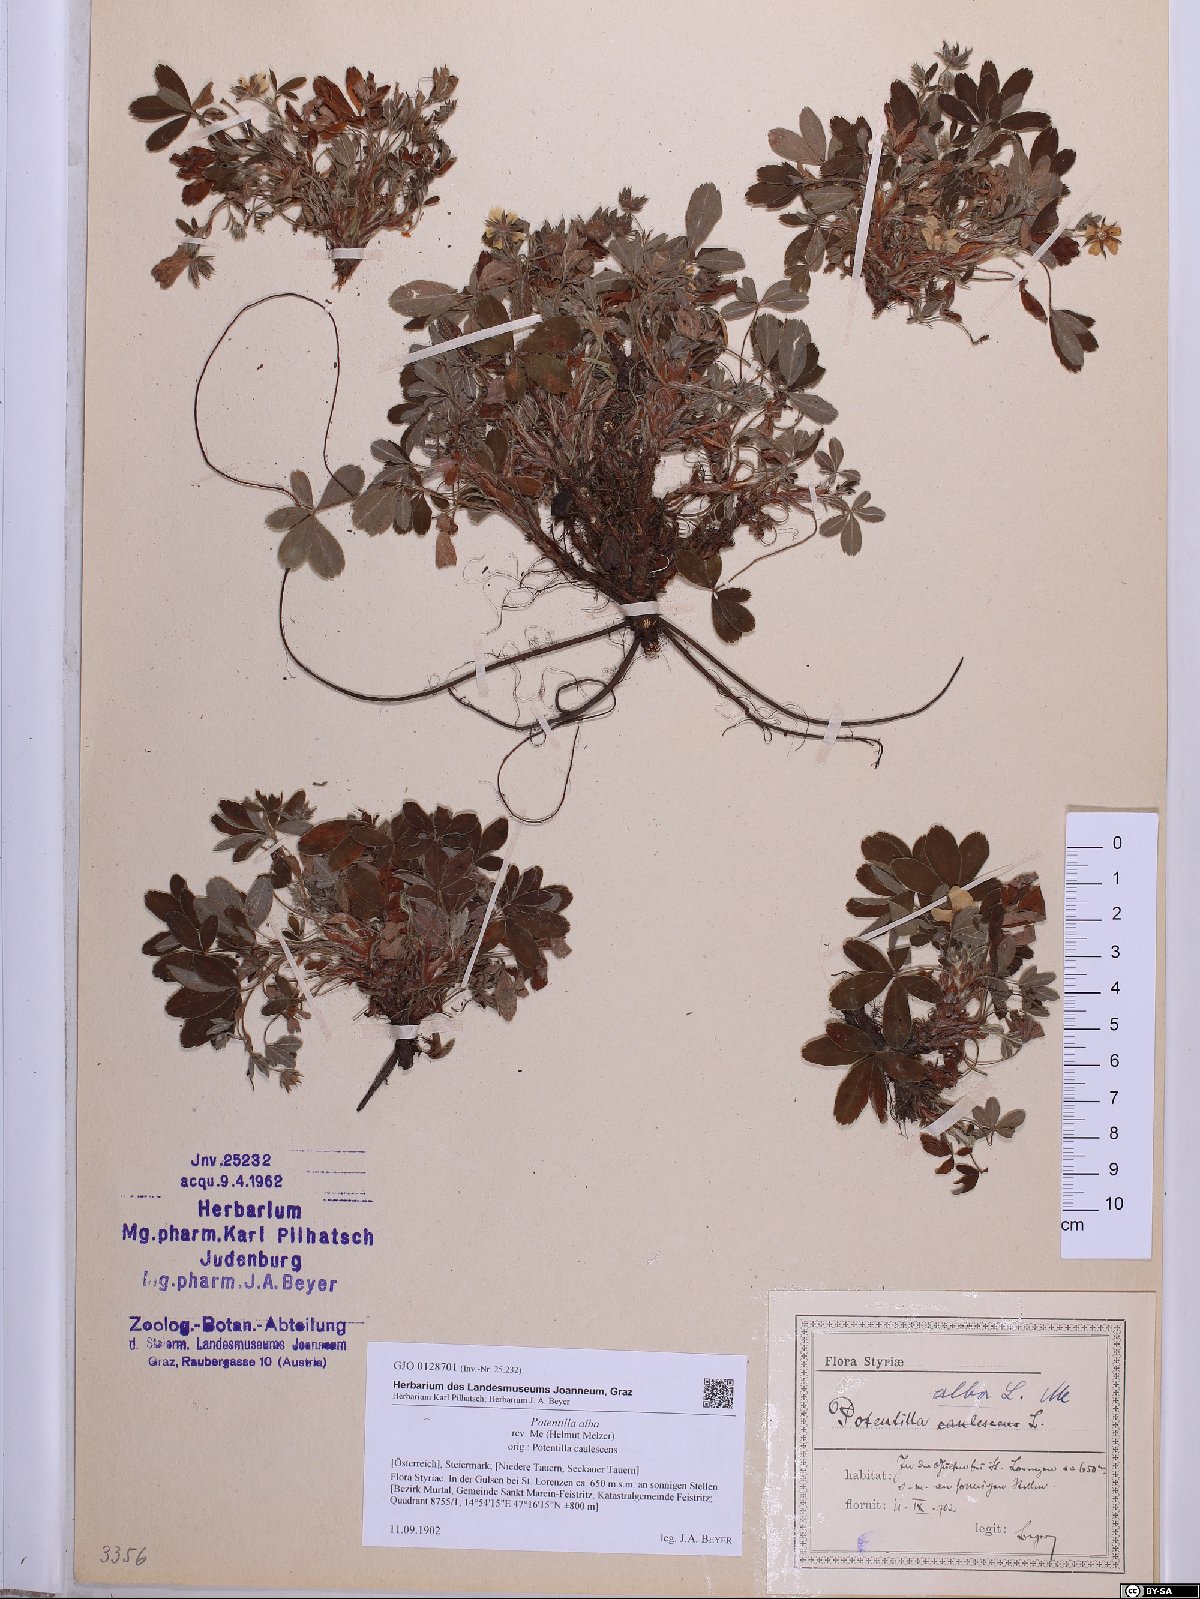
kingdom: Plantae
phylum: Tracheophyta
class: Magnoliopsida
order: Rosales
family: Rosaceae
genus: Potentilla
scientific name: Potentilla alba
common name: White cinquefoil
